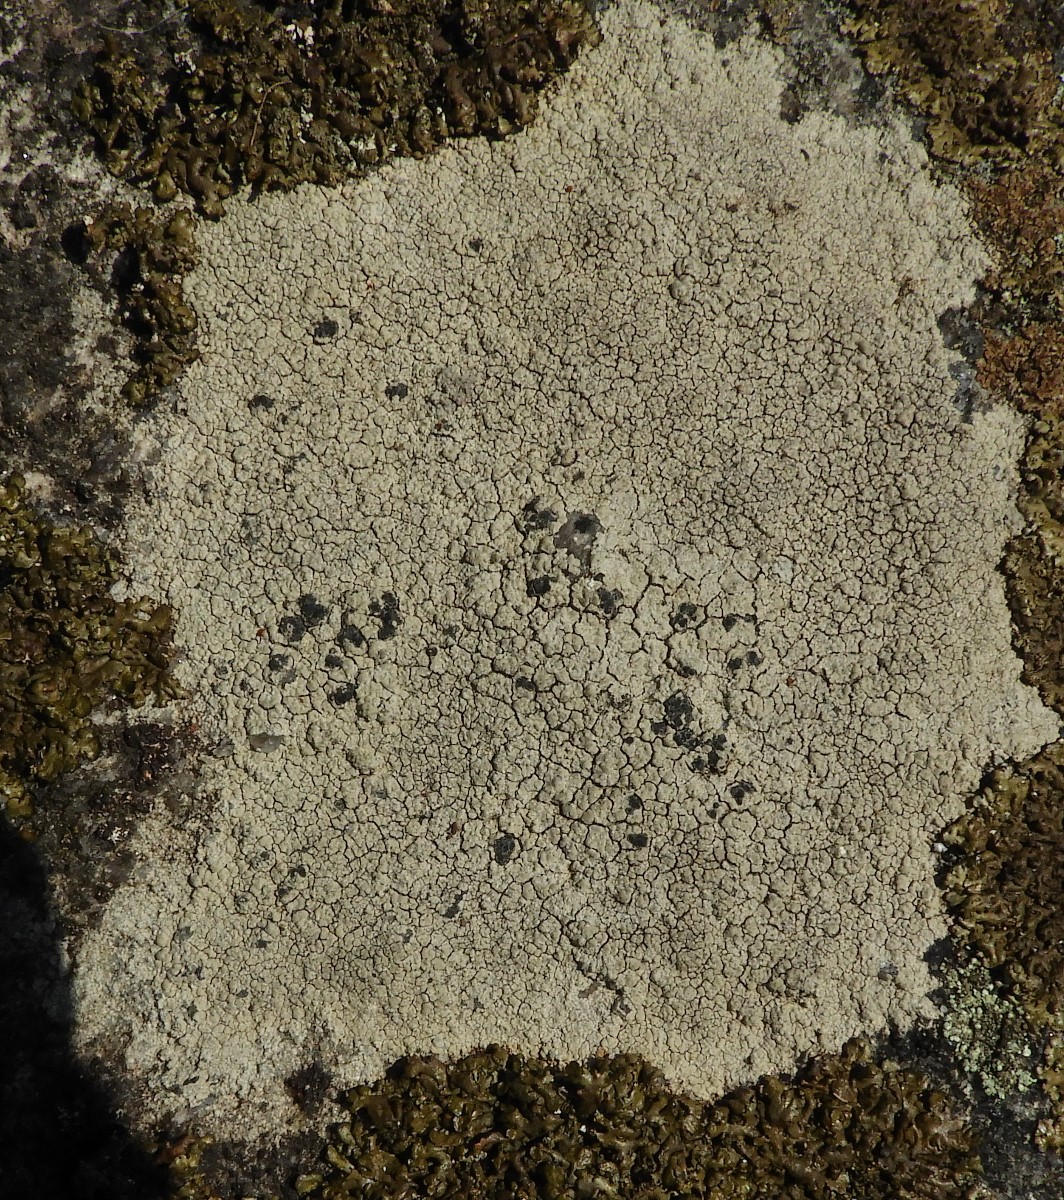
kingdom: Fungi
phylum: Ascomycota
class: Lecanoromycetes
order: Lecanorales
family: Lecanoraceae
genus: Lecidella
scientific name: Lecidella scabra
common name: skurvet skivelav
